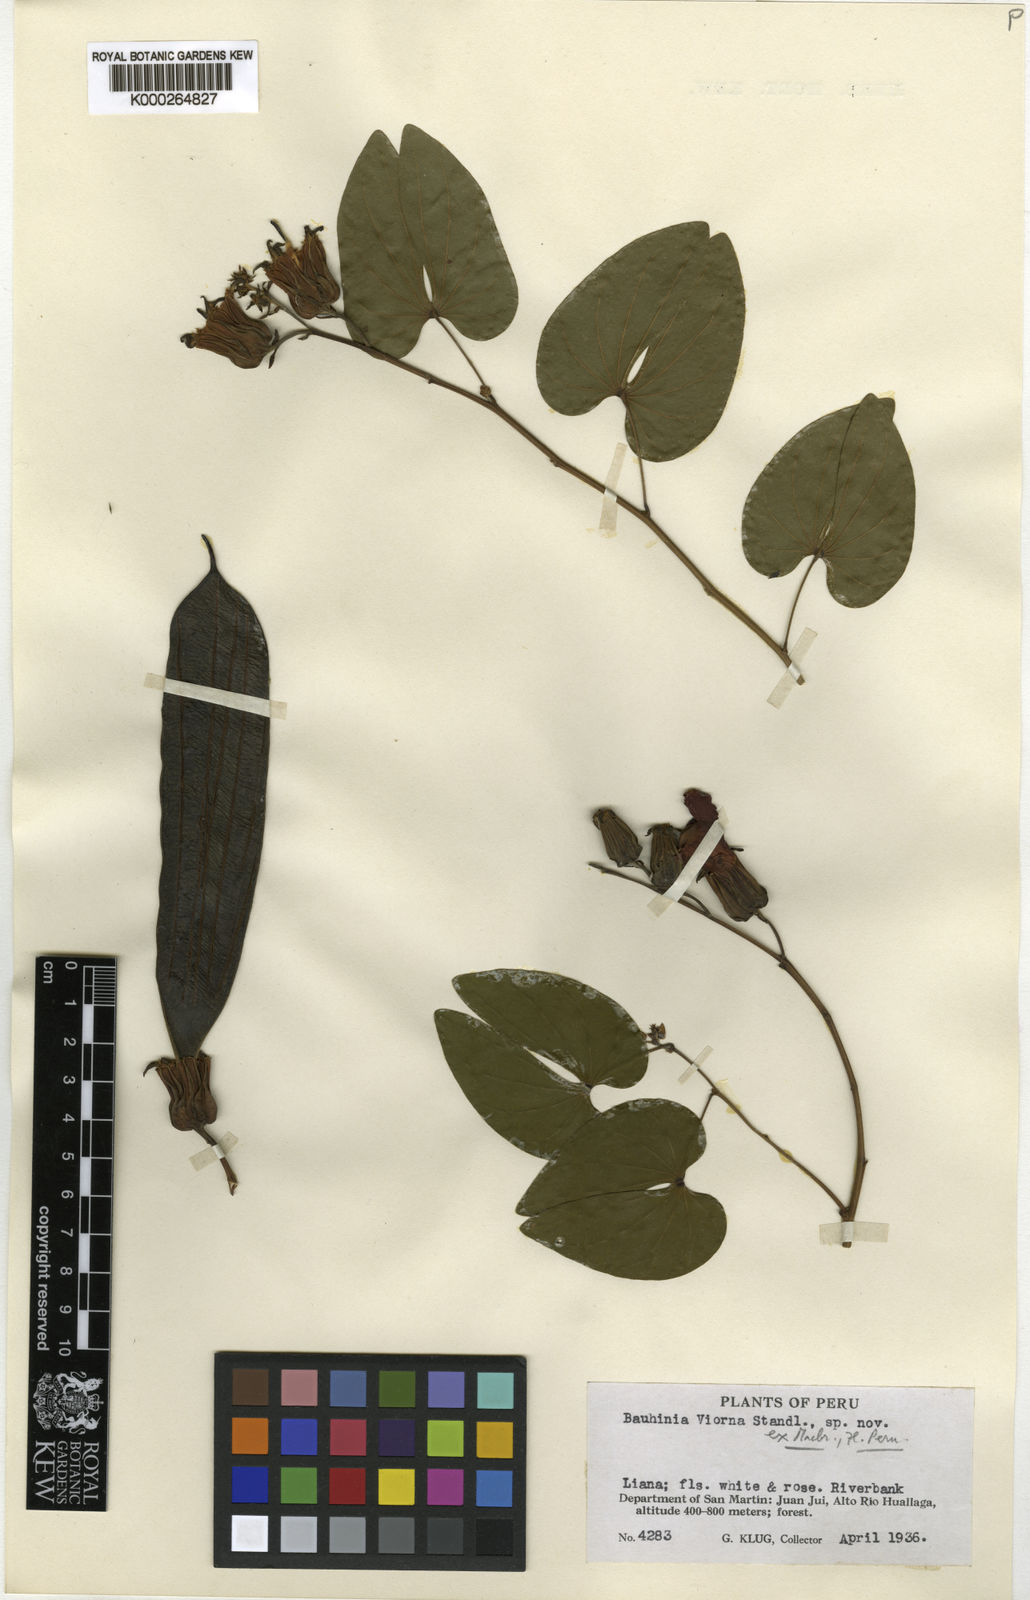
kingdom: Plantae
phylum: Tracheophyta
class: Magnoliopsida
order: Fabales
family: Fabaceae
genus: Bauhinia
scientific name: Bauhinia
